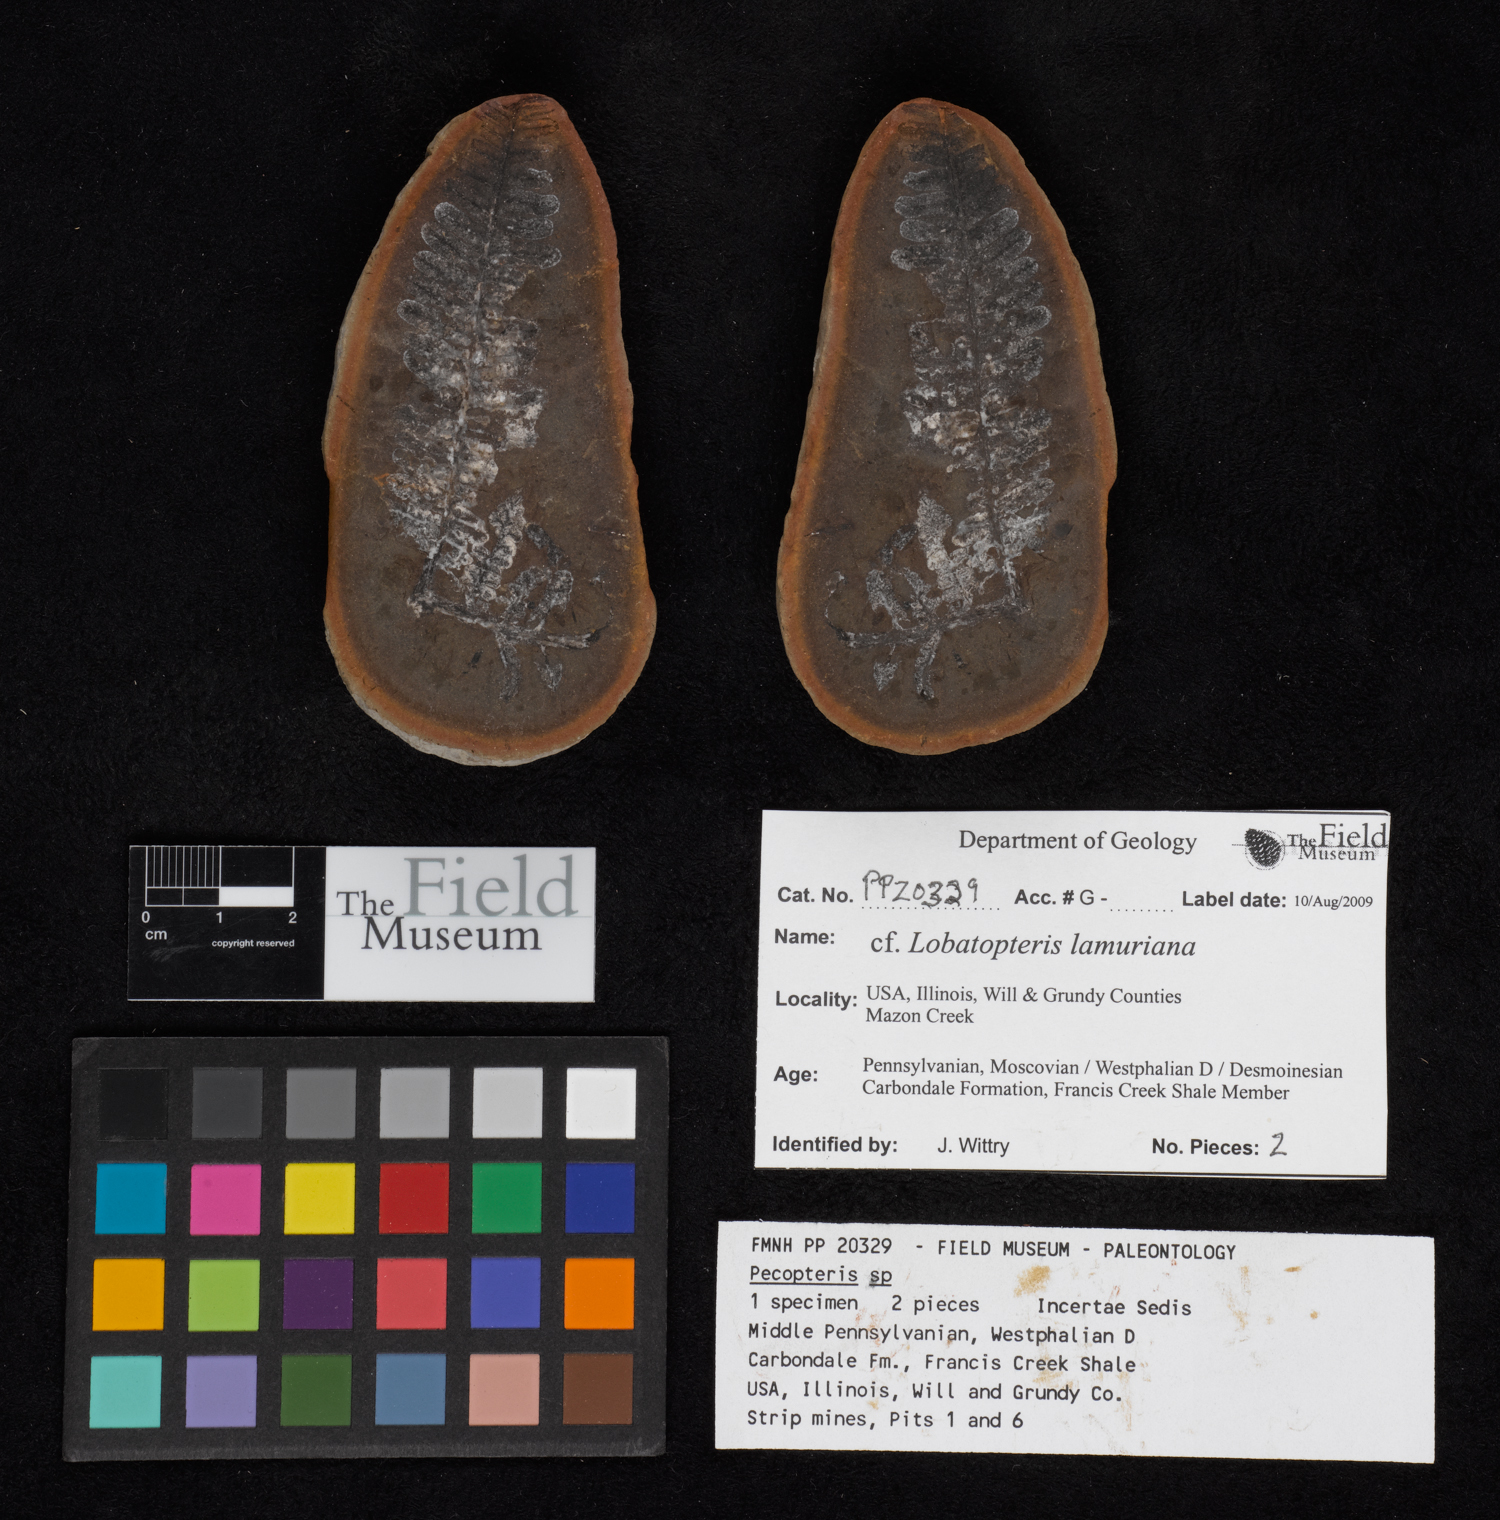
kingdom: Plantae
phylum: Tracheophyta
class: Polypodiopsida
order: Marattiales
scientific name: Marattiales
